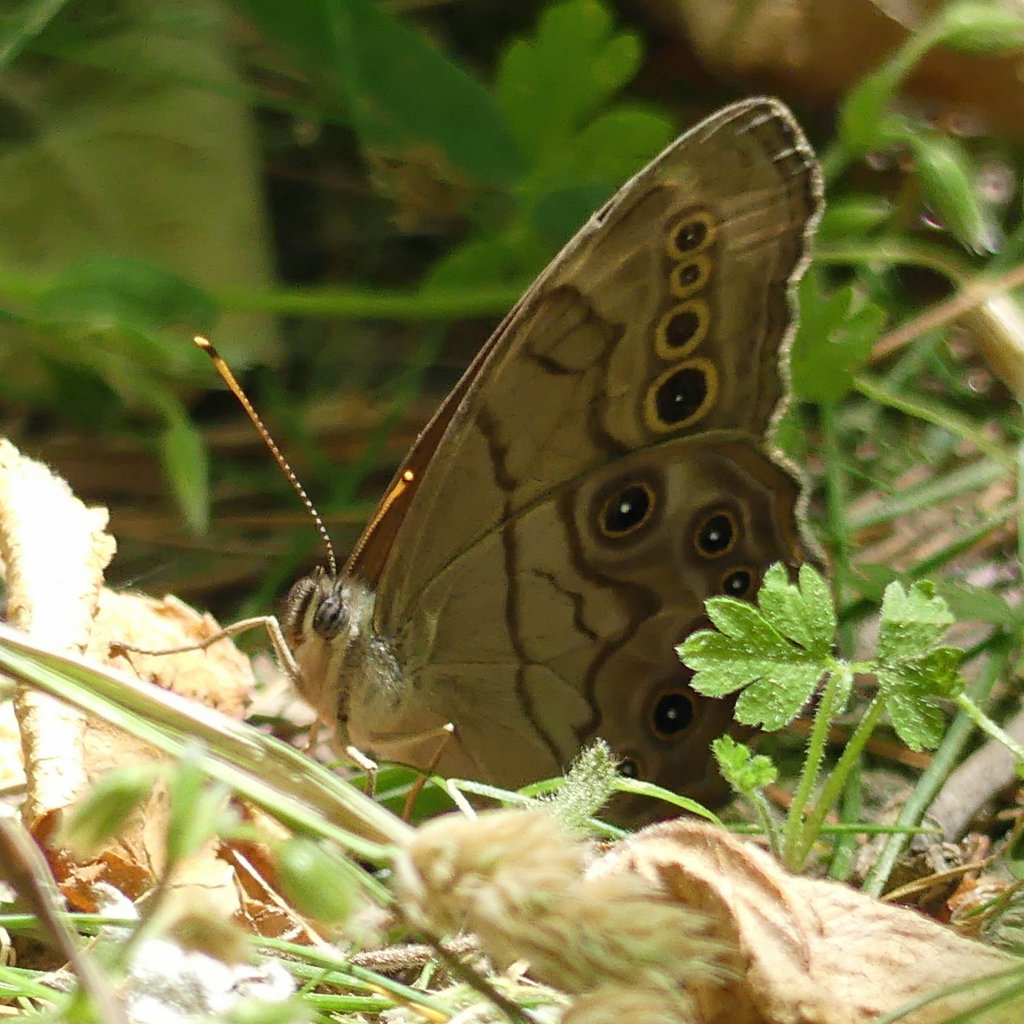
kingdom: Animalia
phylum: Arthropoda
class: Insecta
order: Lepidoptera
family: Nymphalidae
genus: Lethe
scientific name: Lethe anthedon
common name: Northern Pearly-Eye
